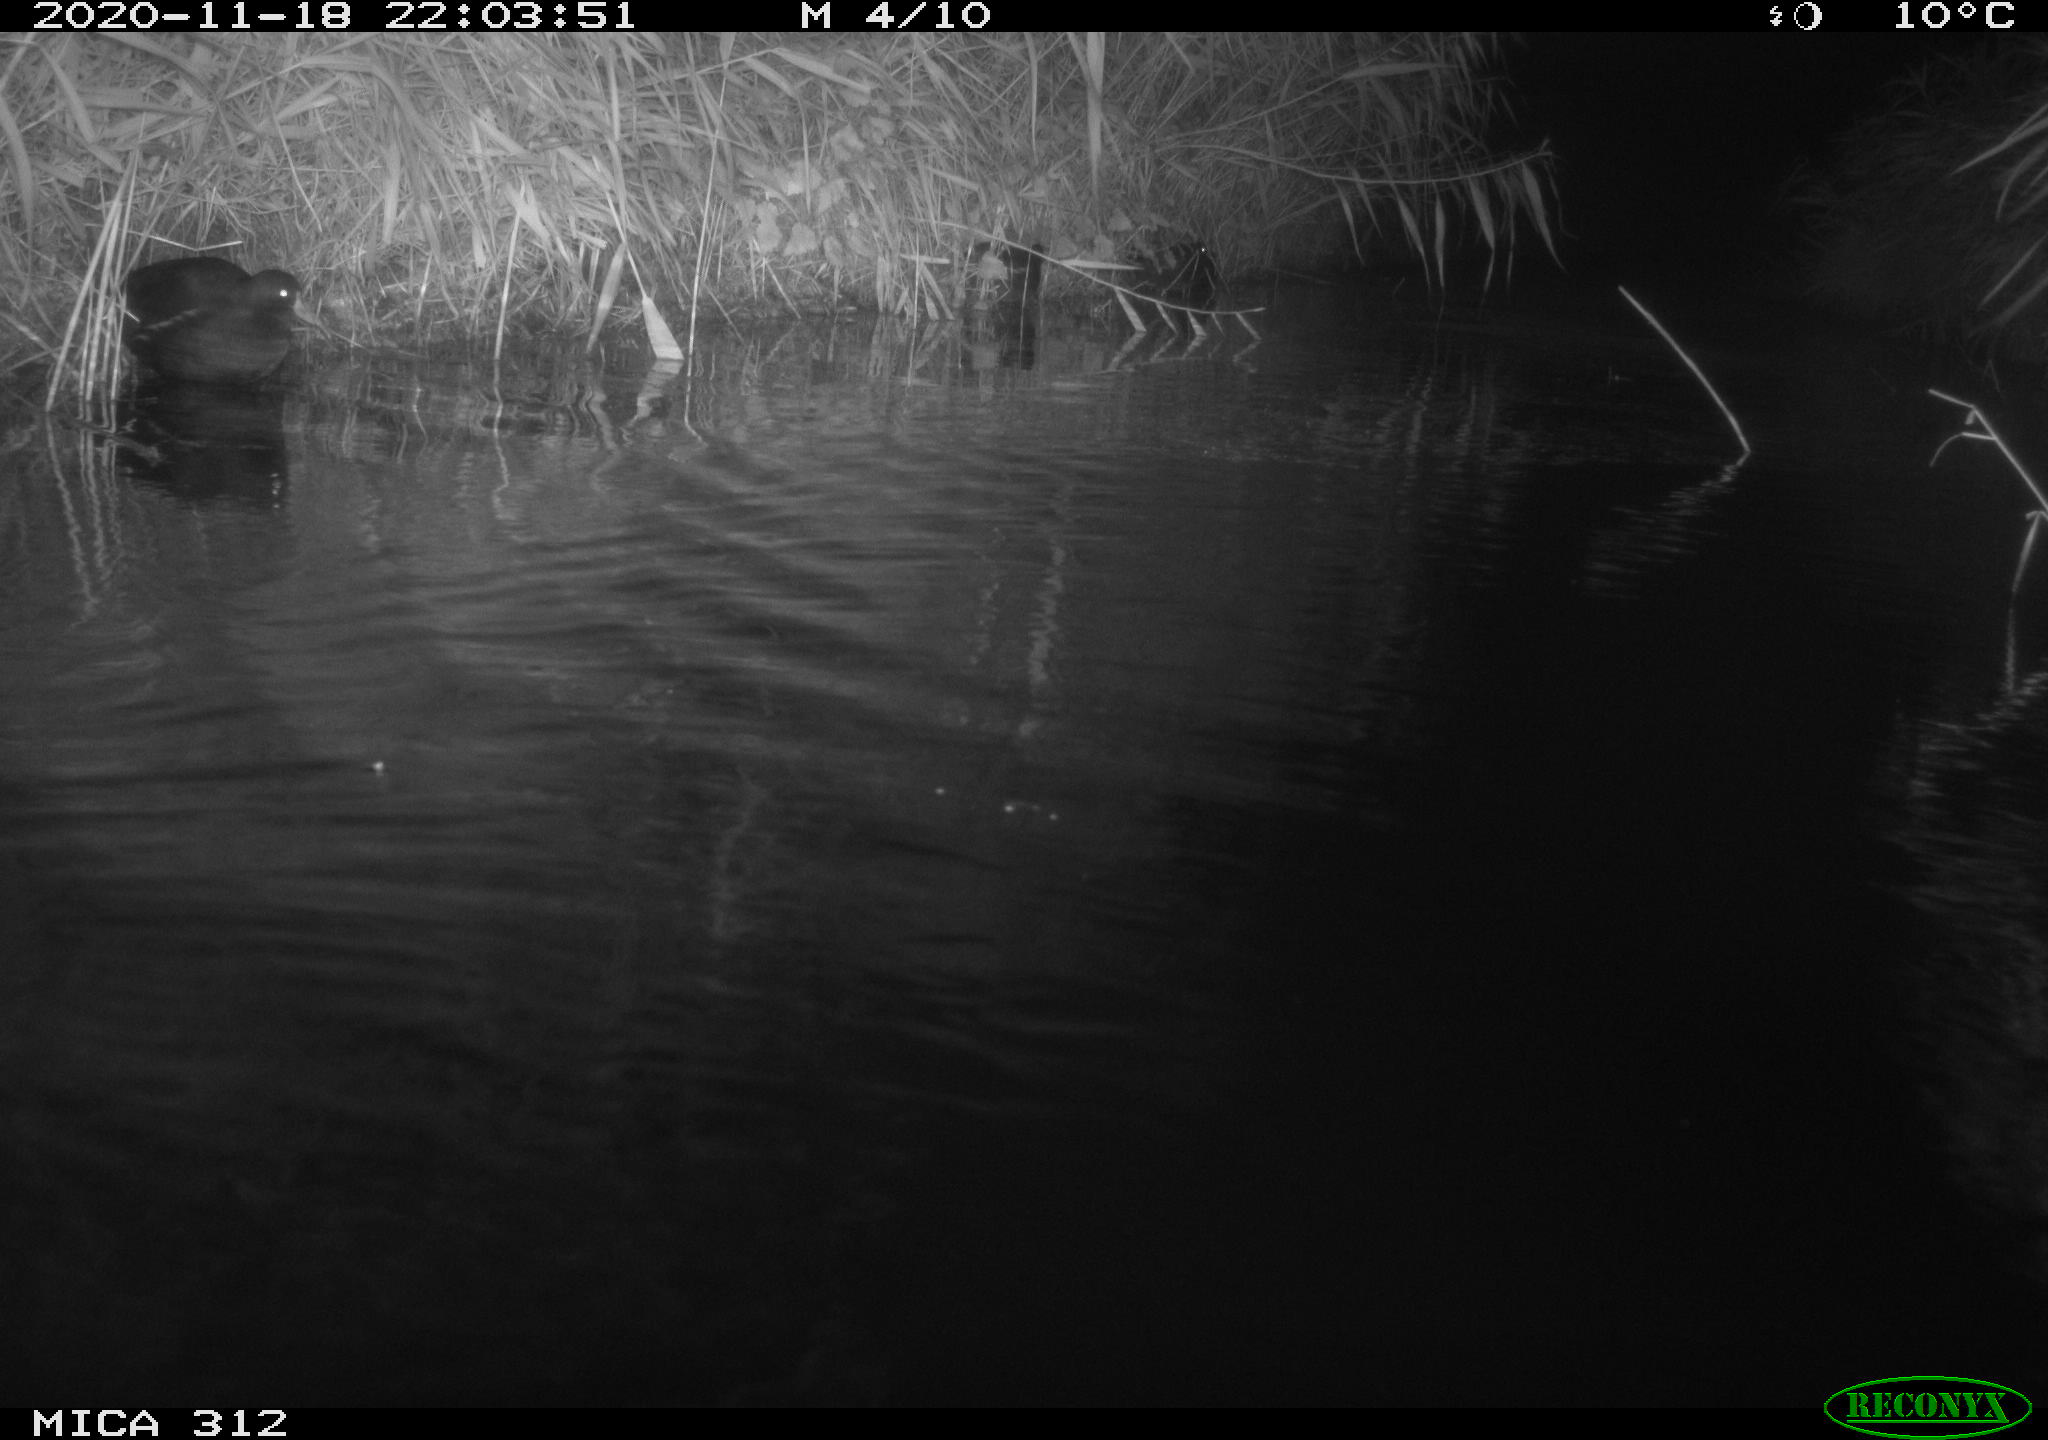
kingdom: Animalia
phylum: Chordata
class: Mammalia
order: Rodentia
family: Muridae
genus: Rattus
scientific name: Rattus norvegicus
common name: Brown rat
